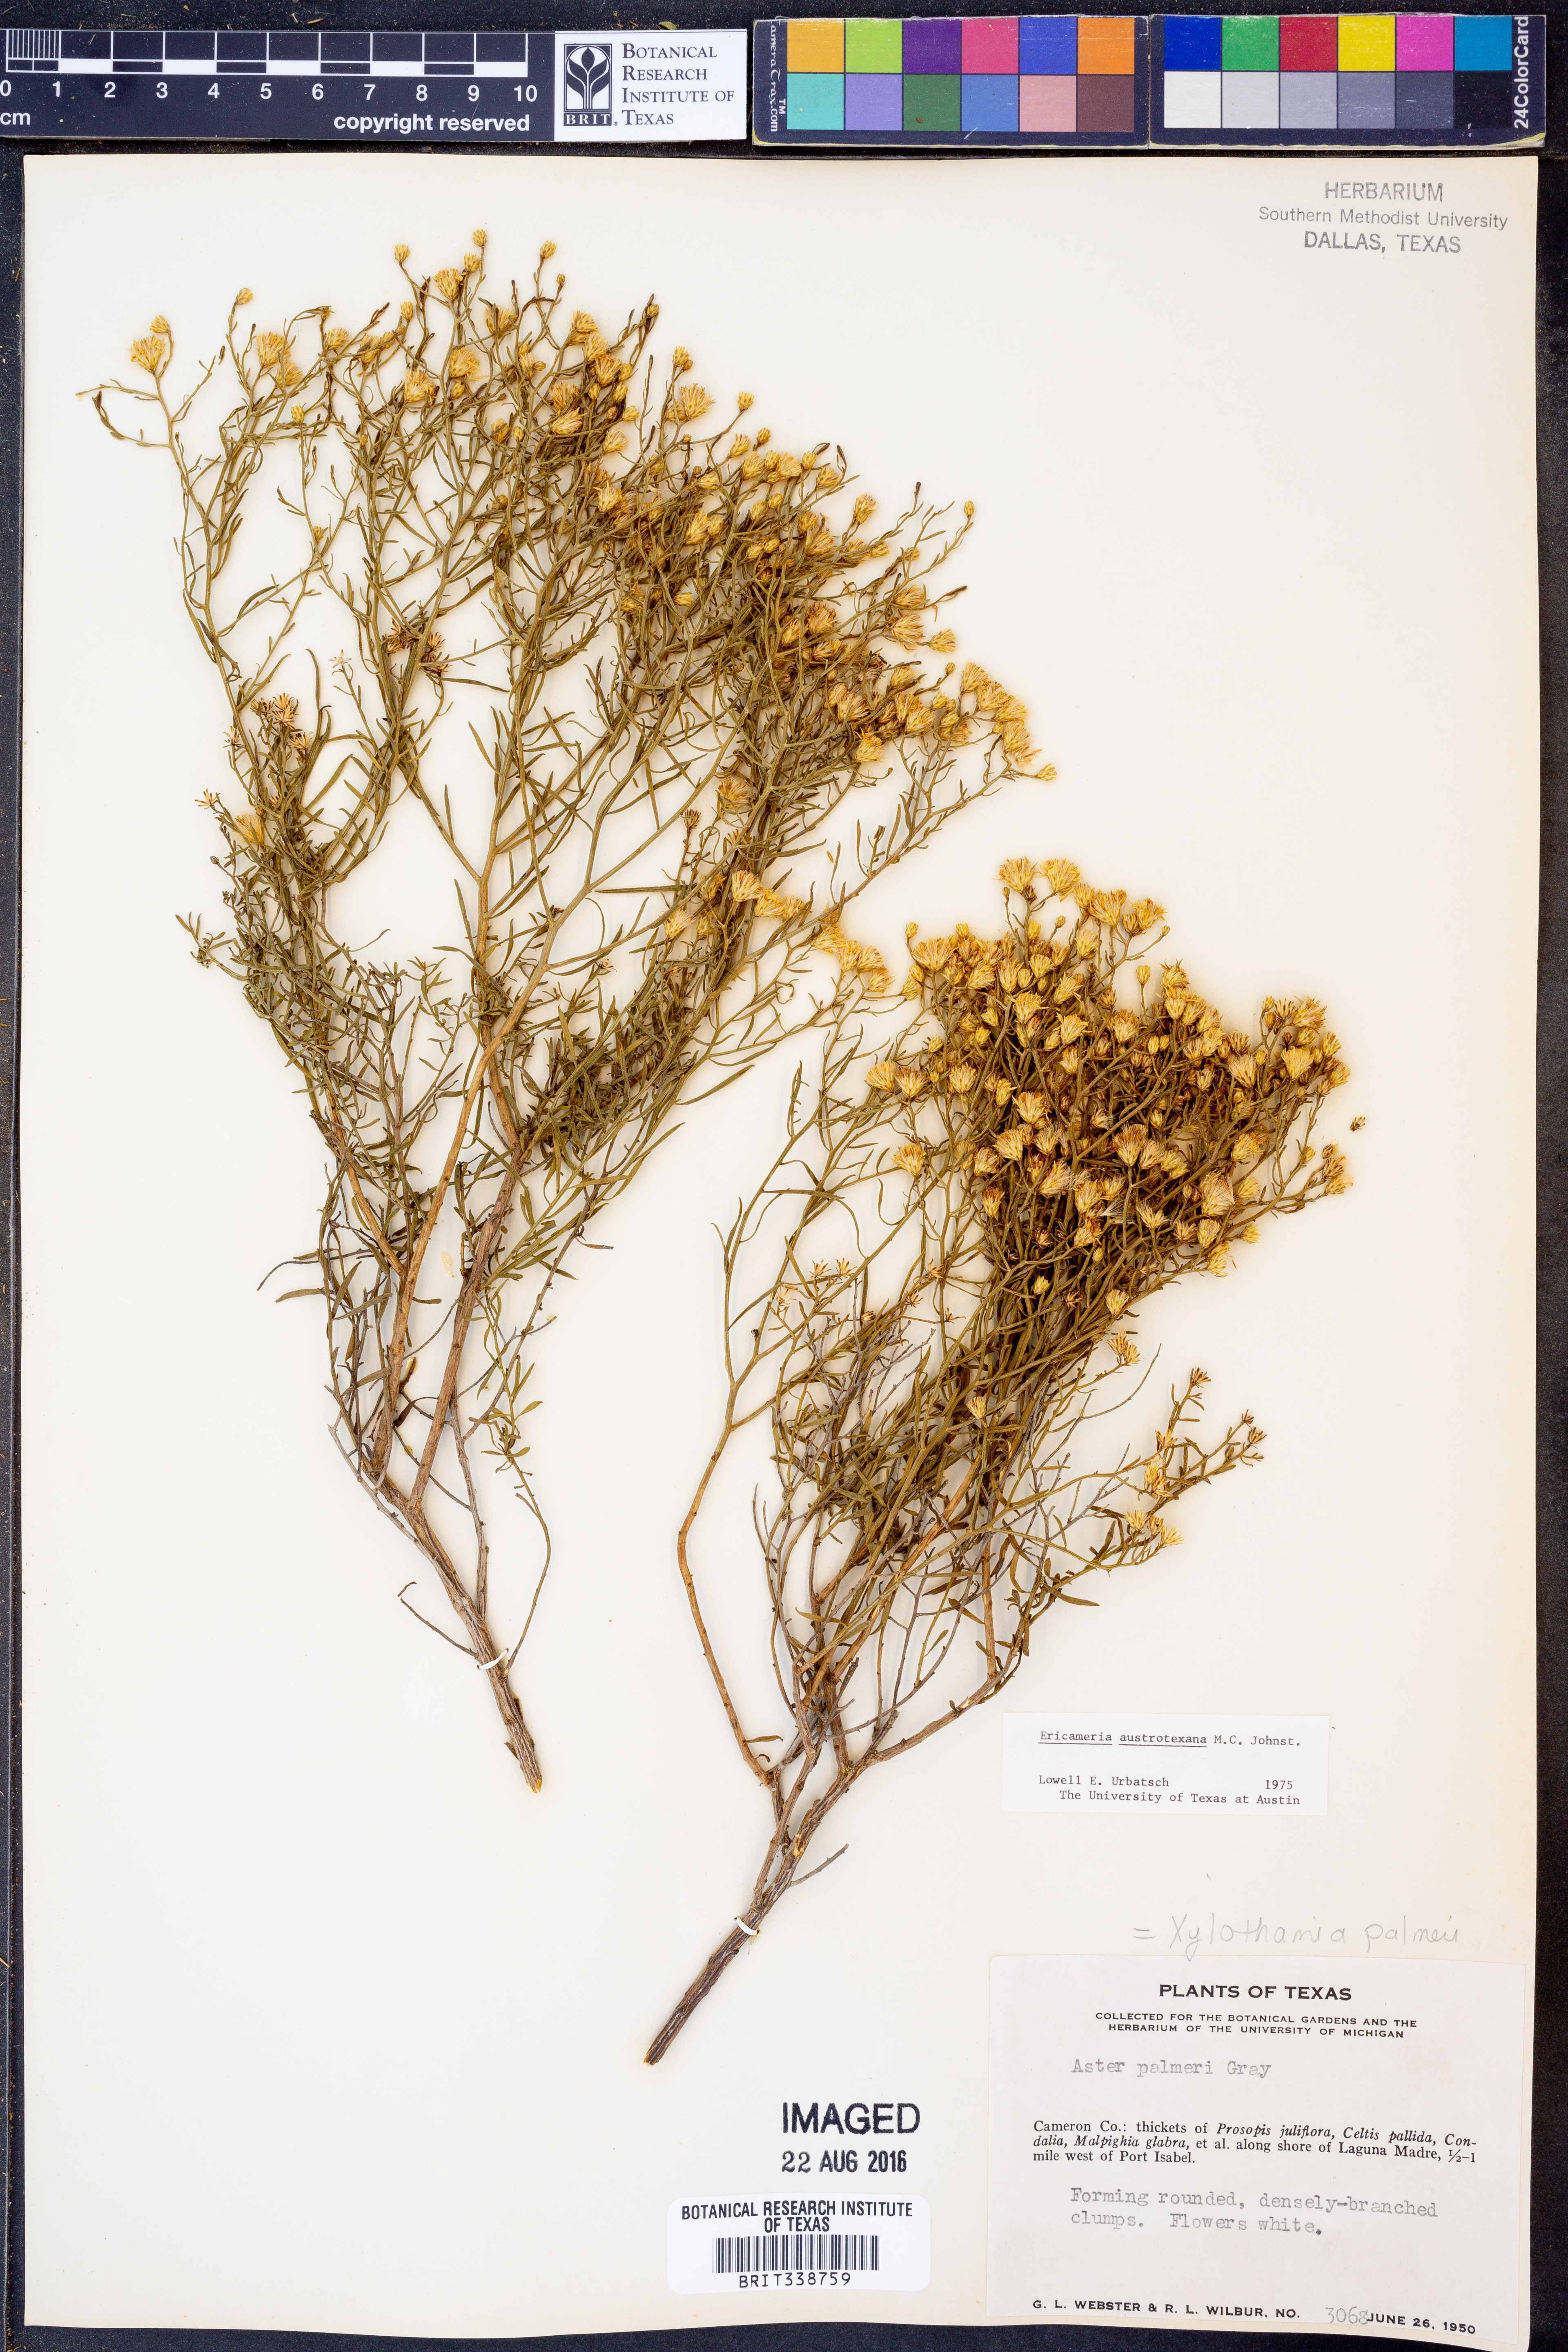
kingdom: Plantae
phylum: Tracheophyta
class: Magnoliopsida
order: Asterales
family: Asteraceae
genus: Medranoa
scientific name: Medranoa palmeri
